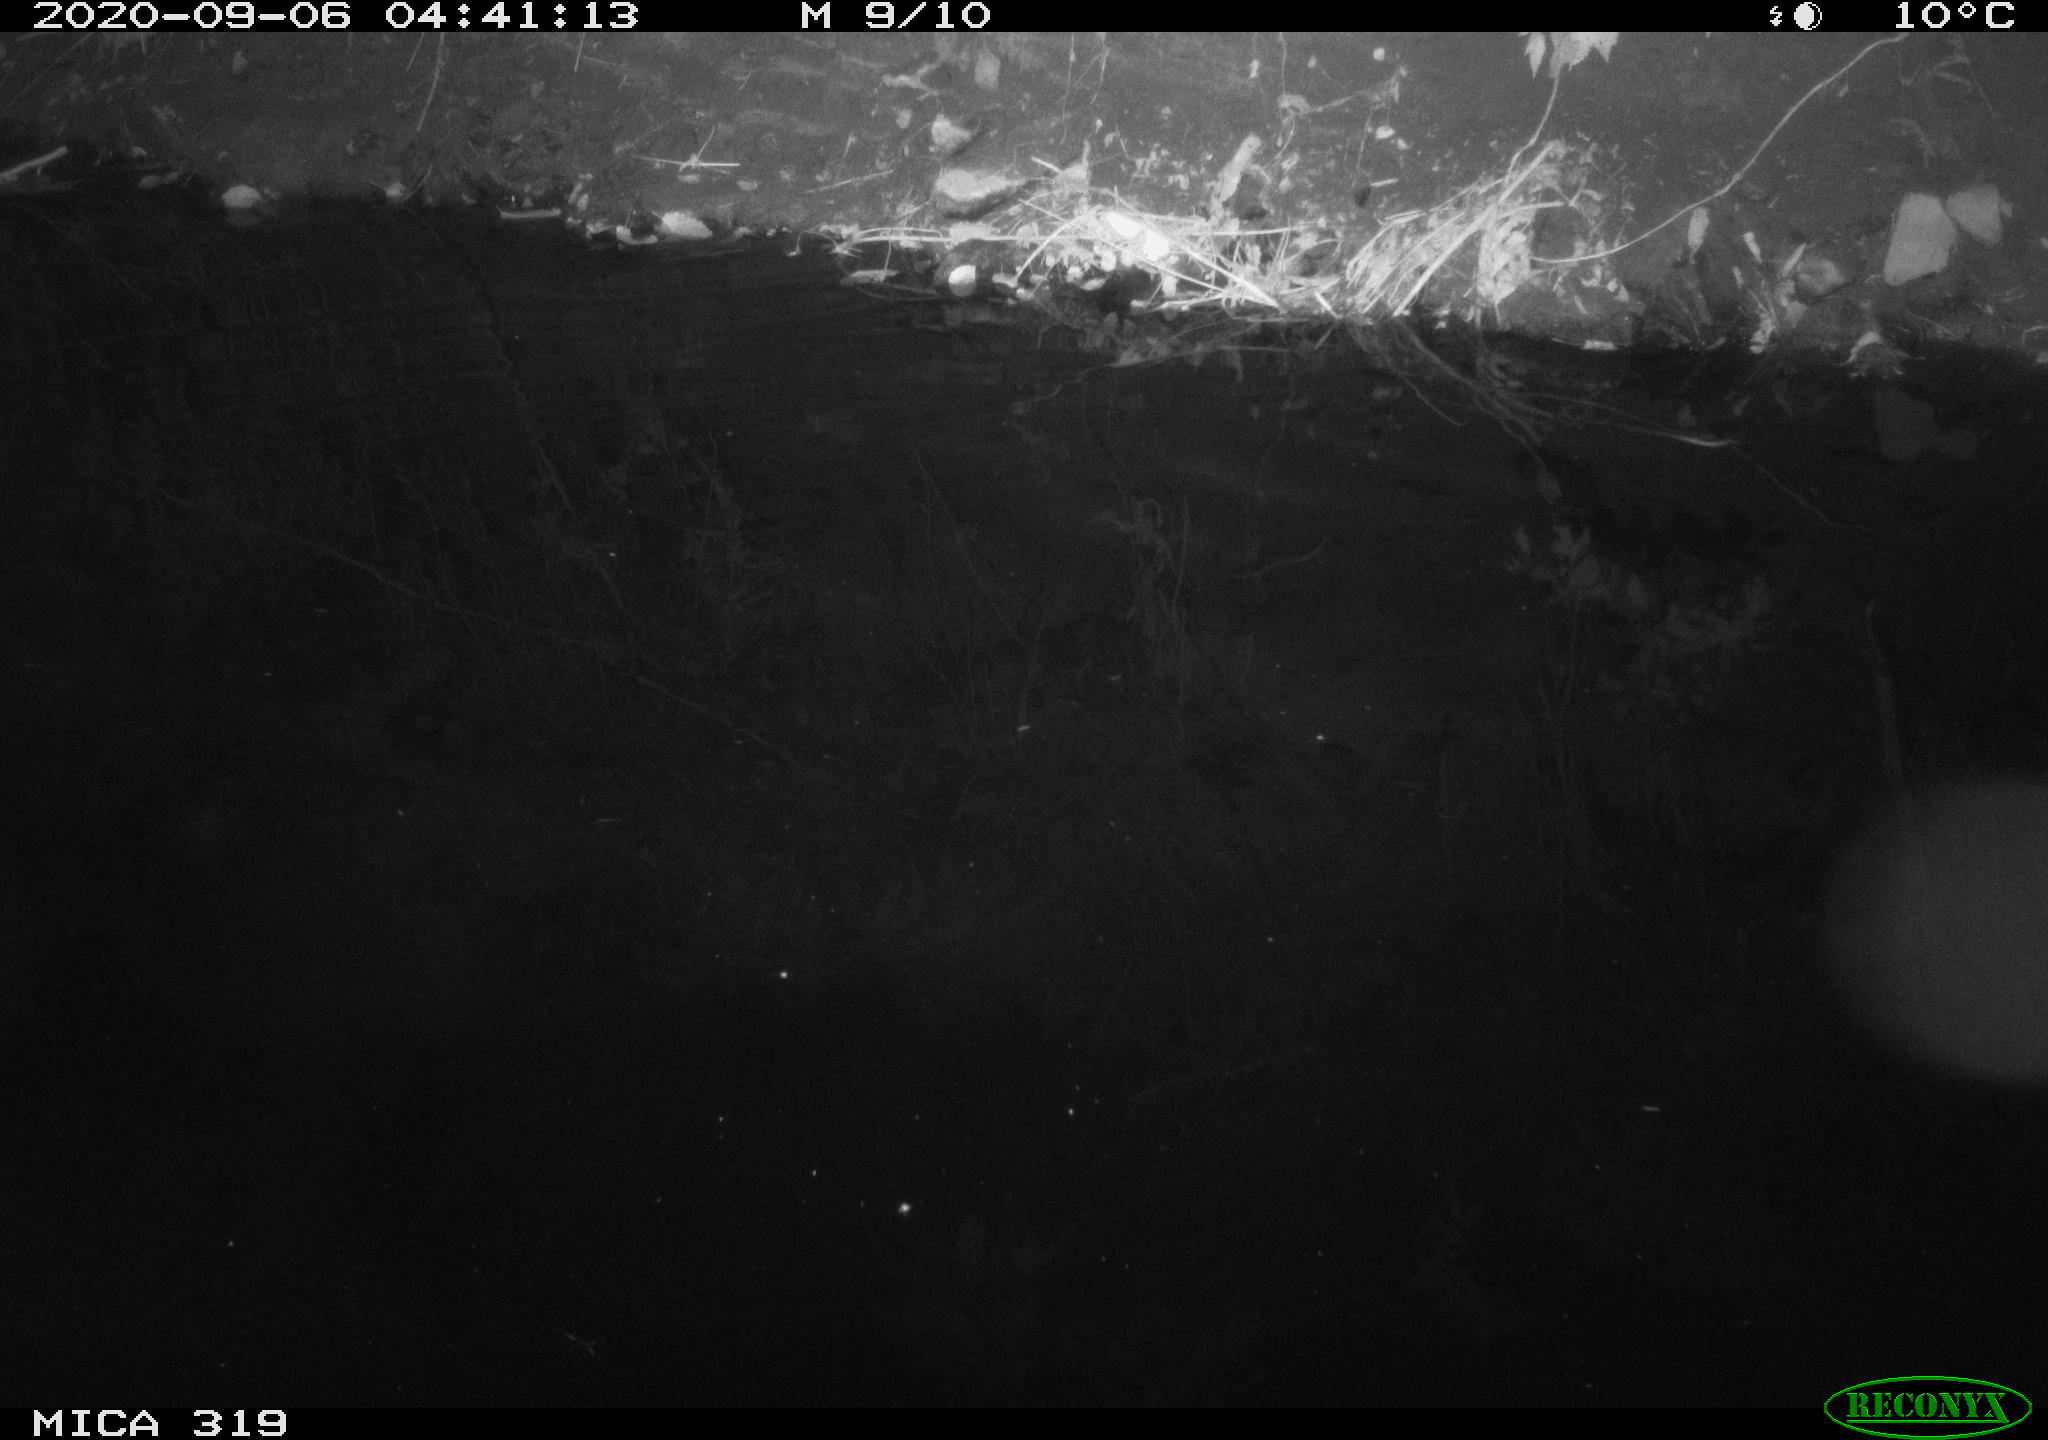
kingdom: Animalia
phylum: Chordata
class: Aves
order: Anseriformes
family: Anatidae
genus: Anas
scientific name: Anas platyrhynchos
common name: Mallard
